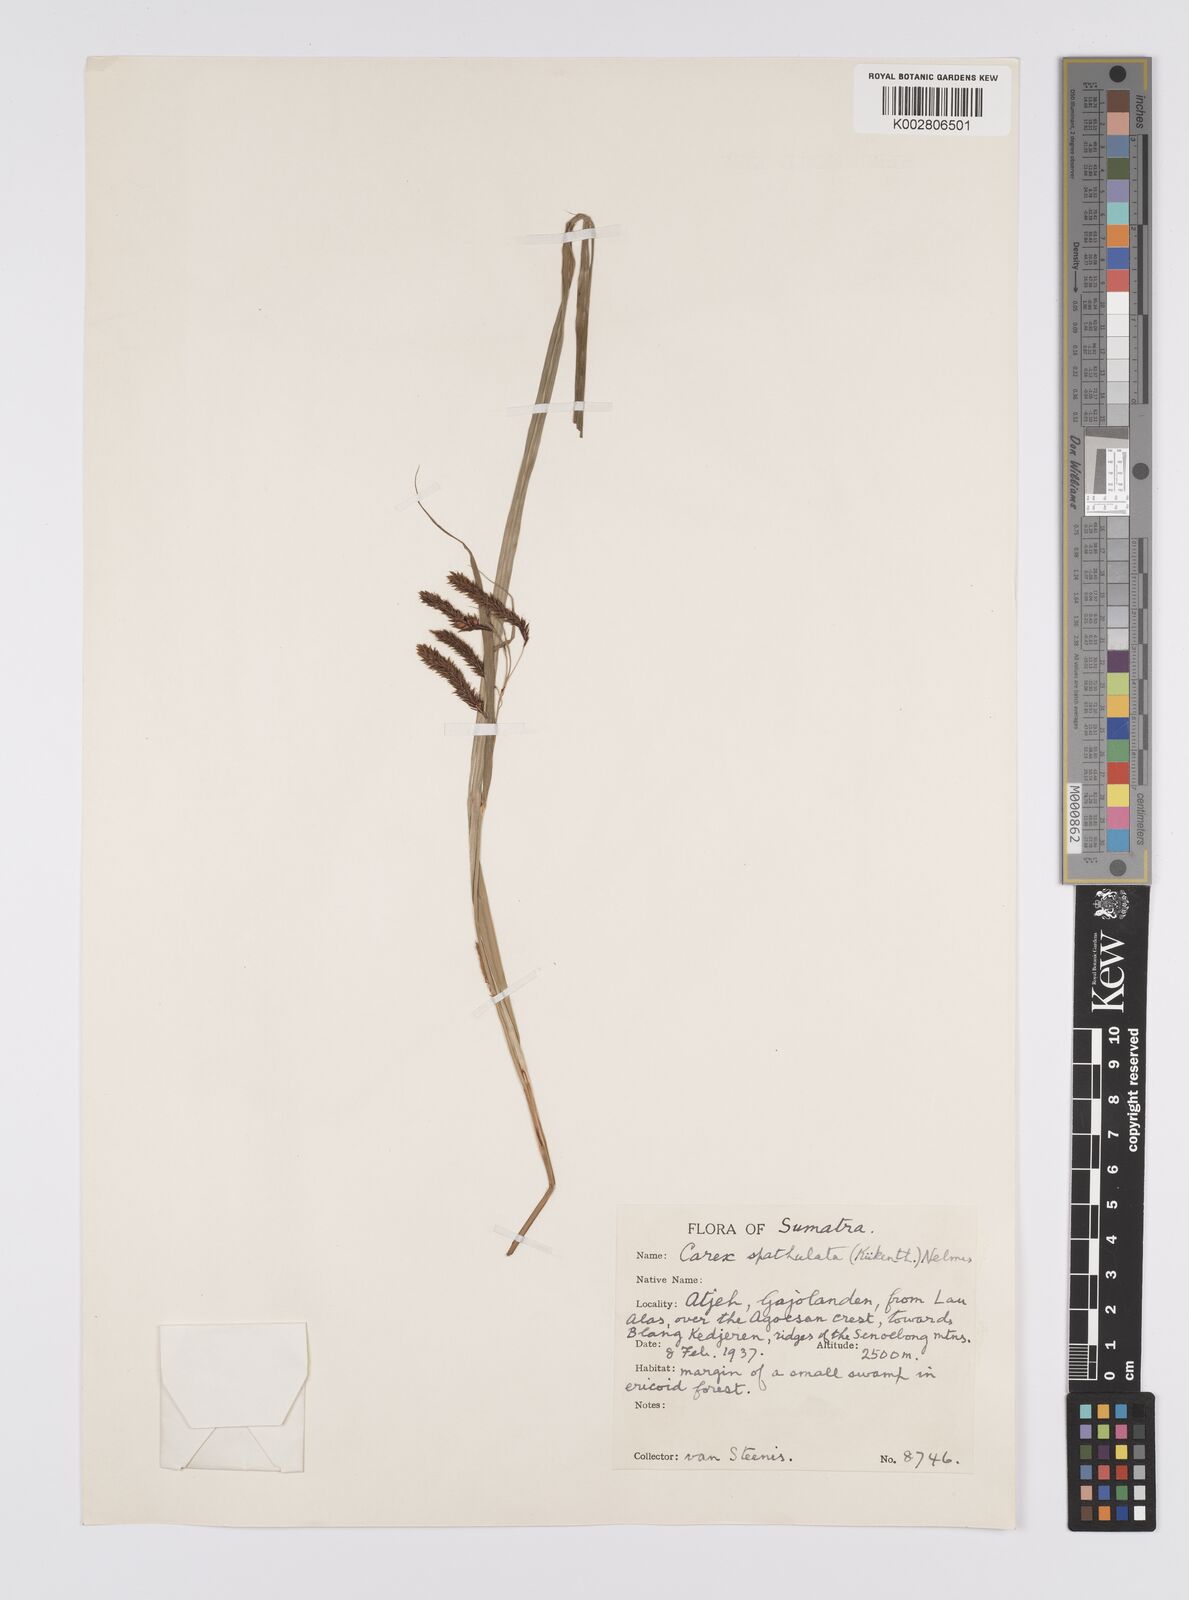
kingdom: Plantae
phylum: Tracheophyta
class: Liliopsida
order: Poales
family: Cyperaceae
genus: Carex
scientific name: Carex teres
